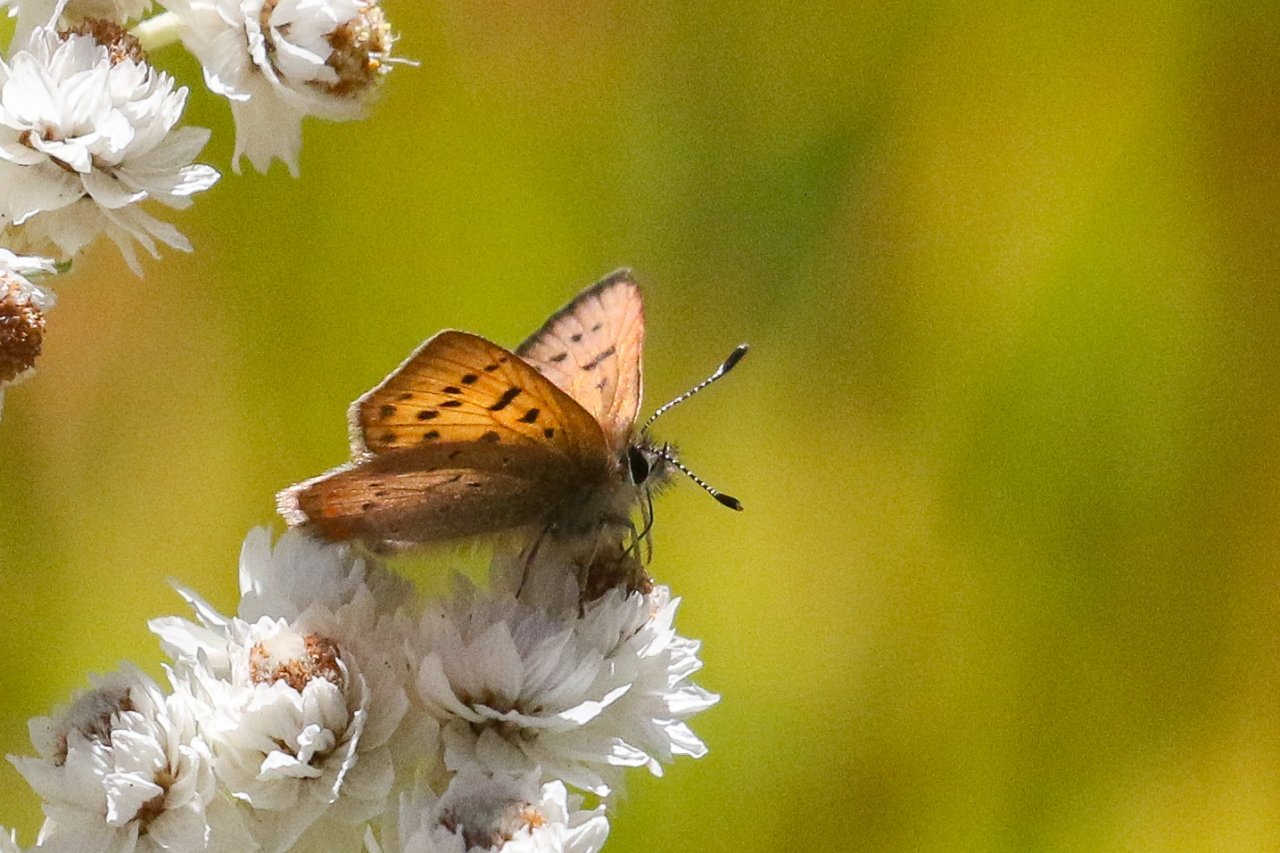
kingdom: Animalia
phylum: Arthropoda
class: Insecta
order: Lepidoptera
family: Sesiidae
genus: Sesia
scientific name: Sesia Lycaena helloides
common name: Purplish Copper
